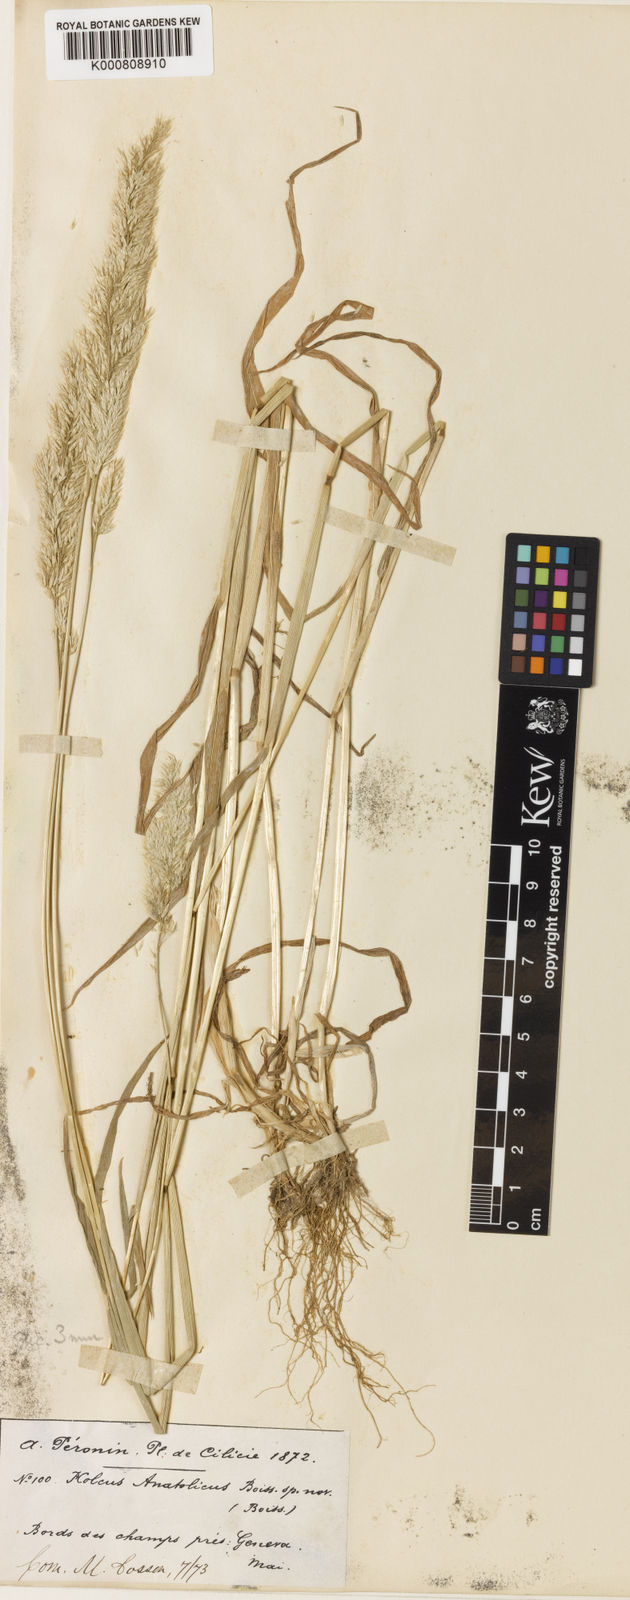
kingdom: Plantae
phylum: Tracheophyta
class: Liliopsida
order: Poales
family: Poaceae
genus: Holcus
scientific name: Holcus annuus
